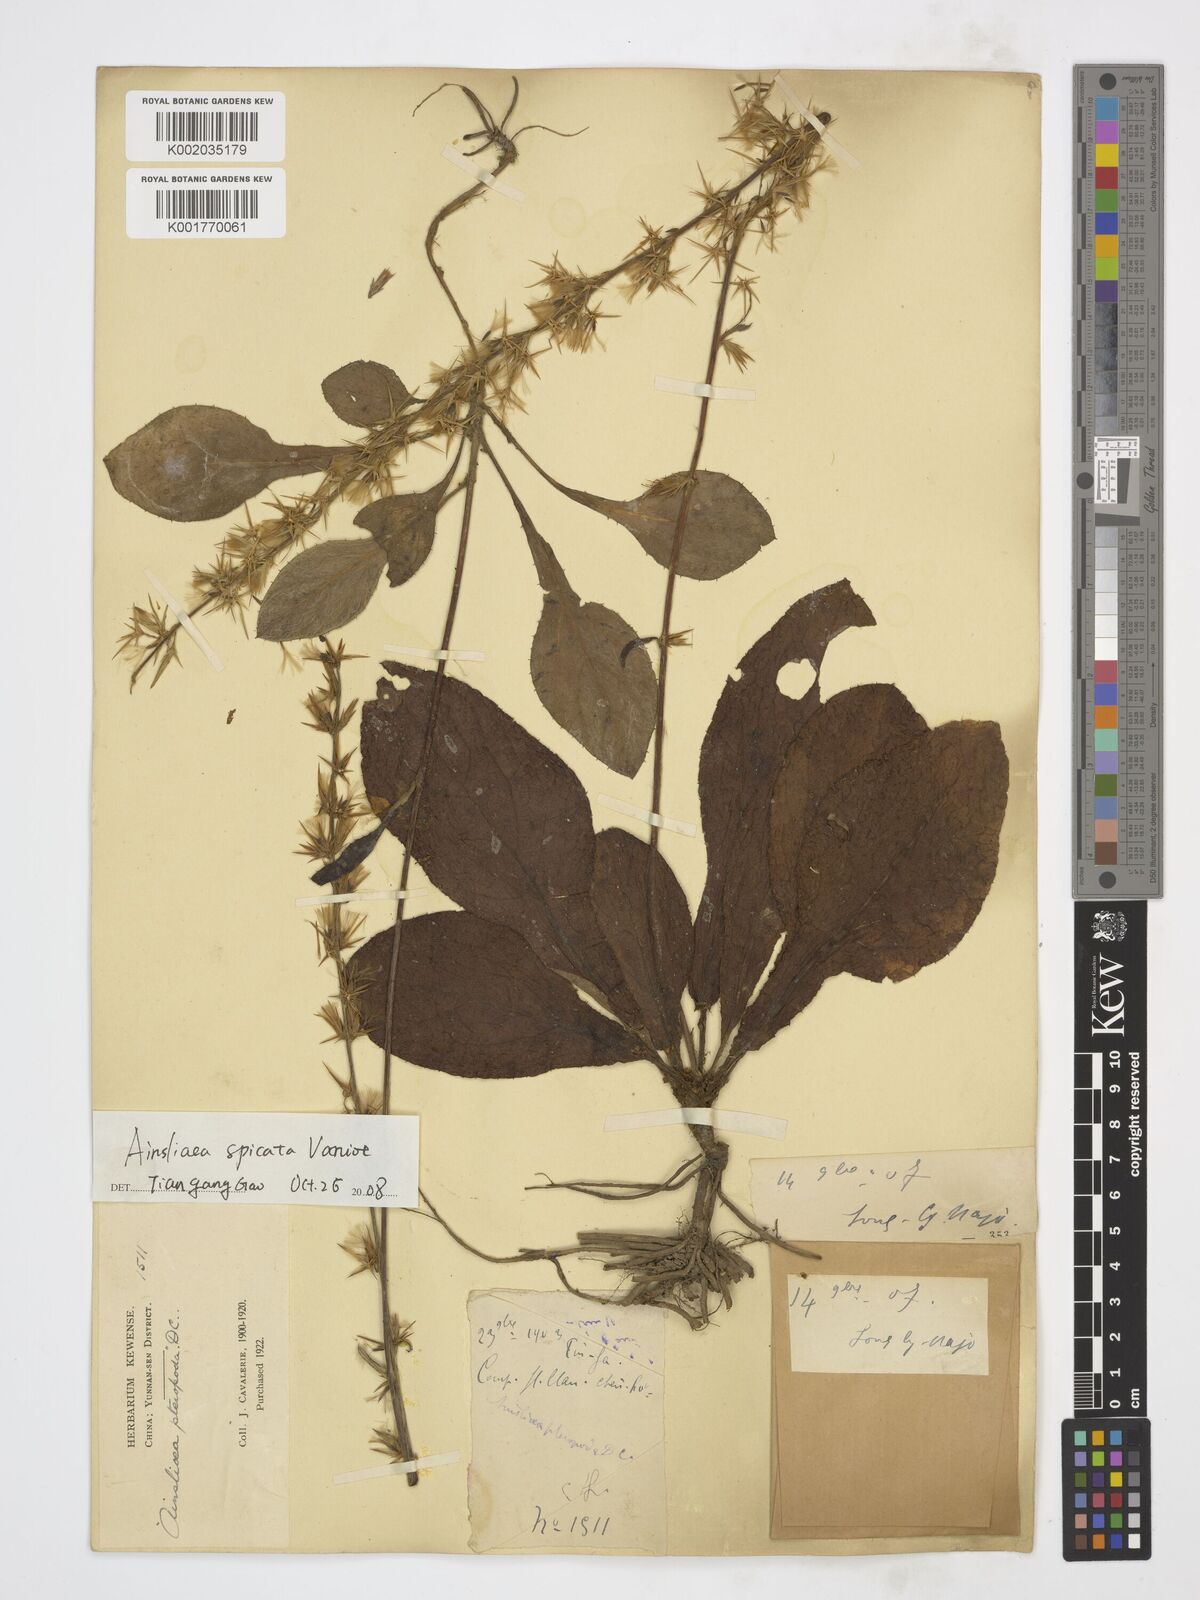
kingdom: Plantae
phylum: Tracheophyta
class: Magnoliopsida
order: Asterales
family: Asteraceae
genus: Ainsliaea
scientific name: Ainsliaea spicata
